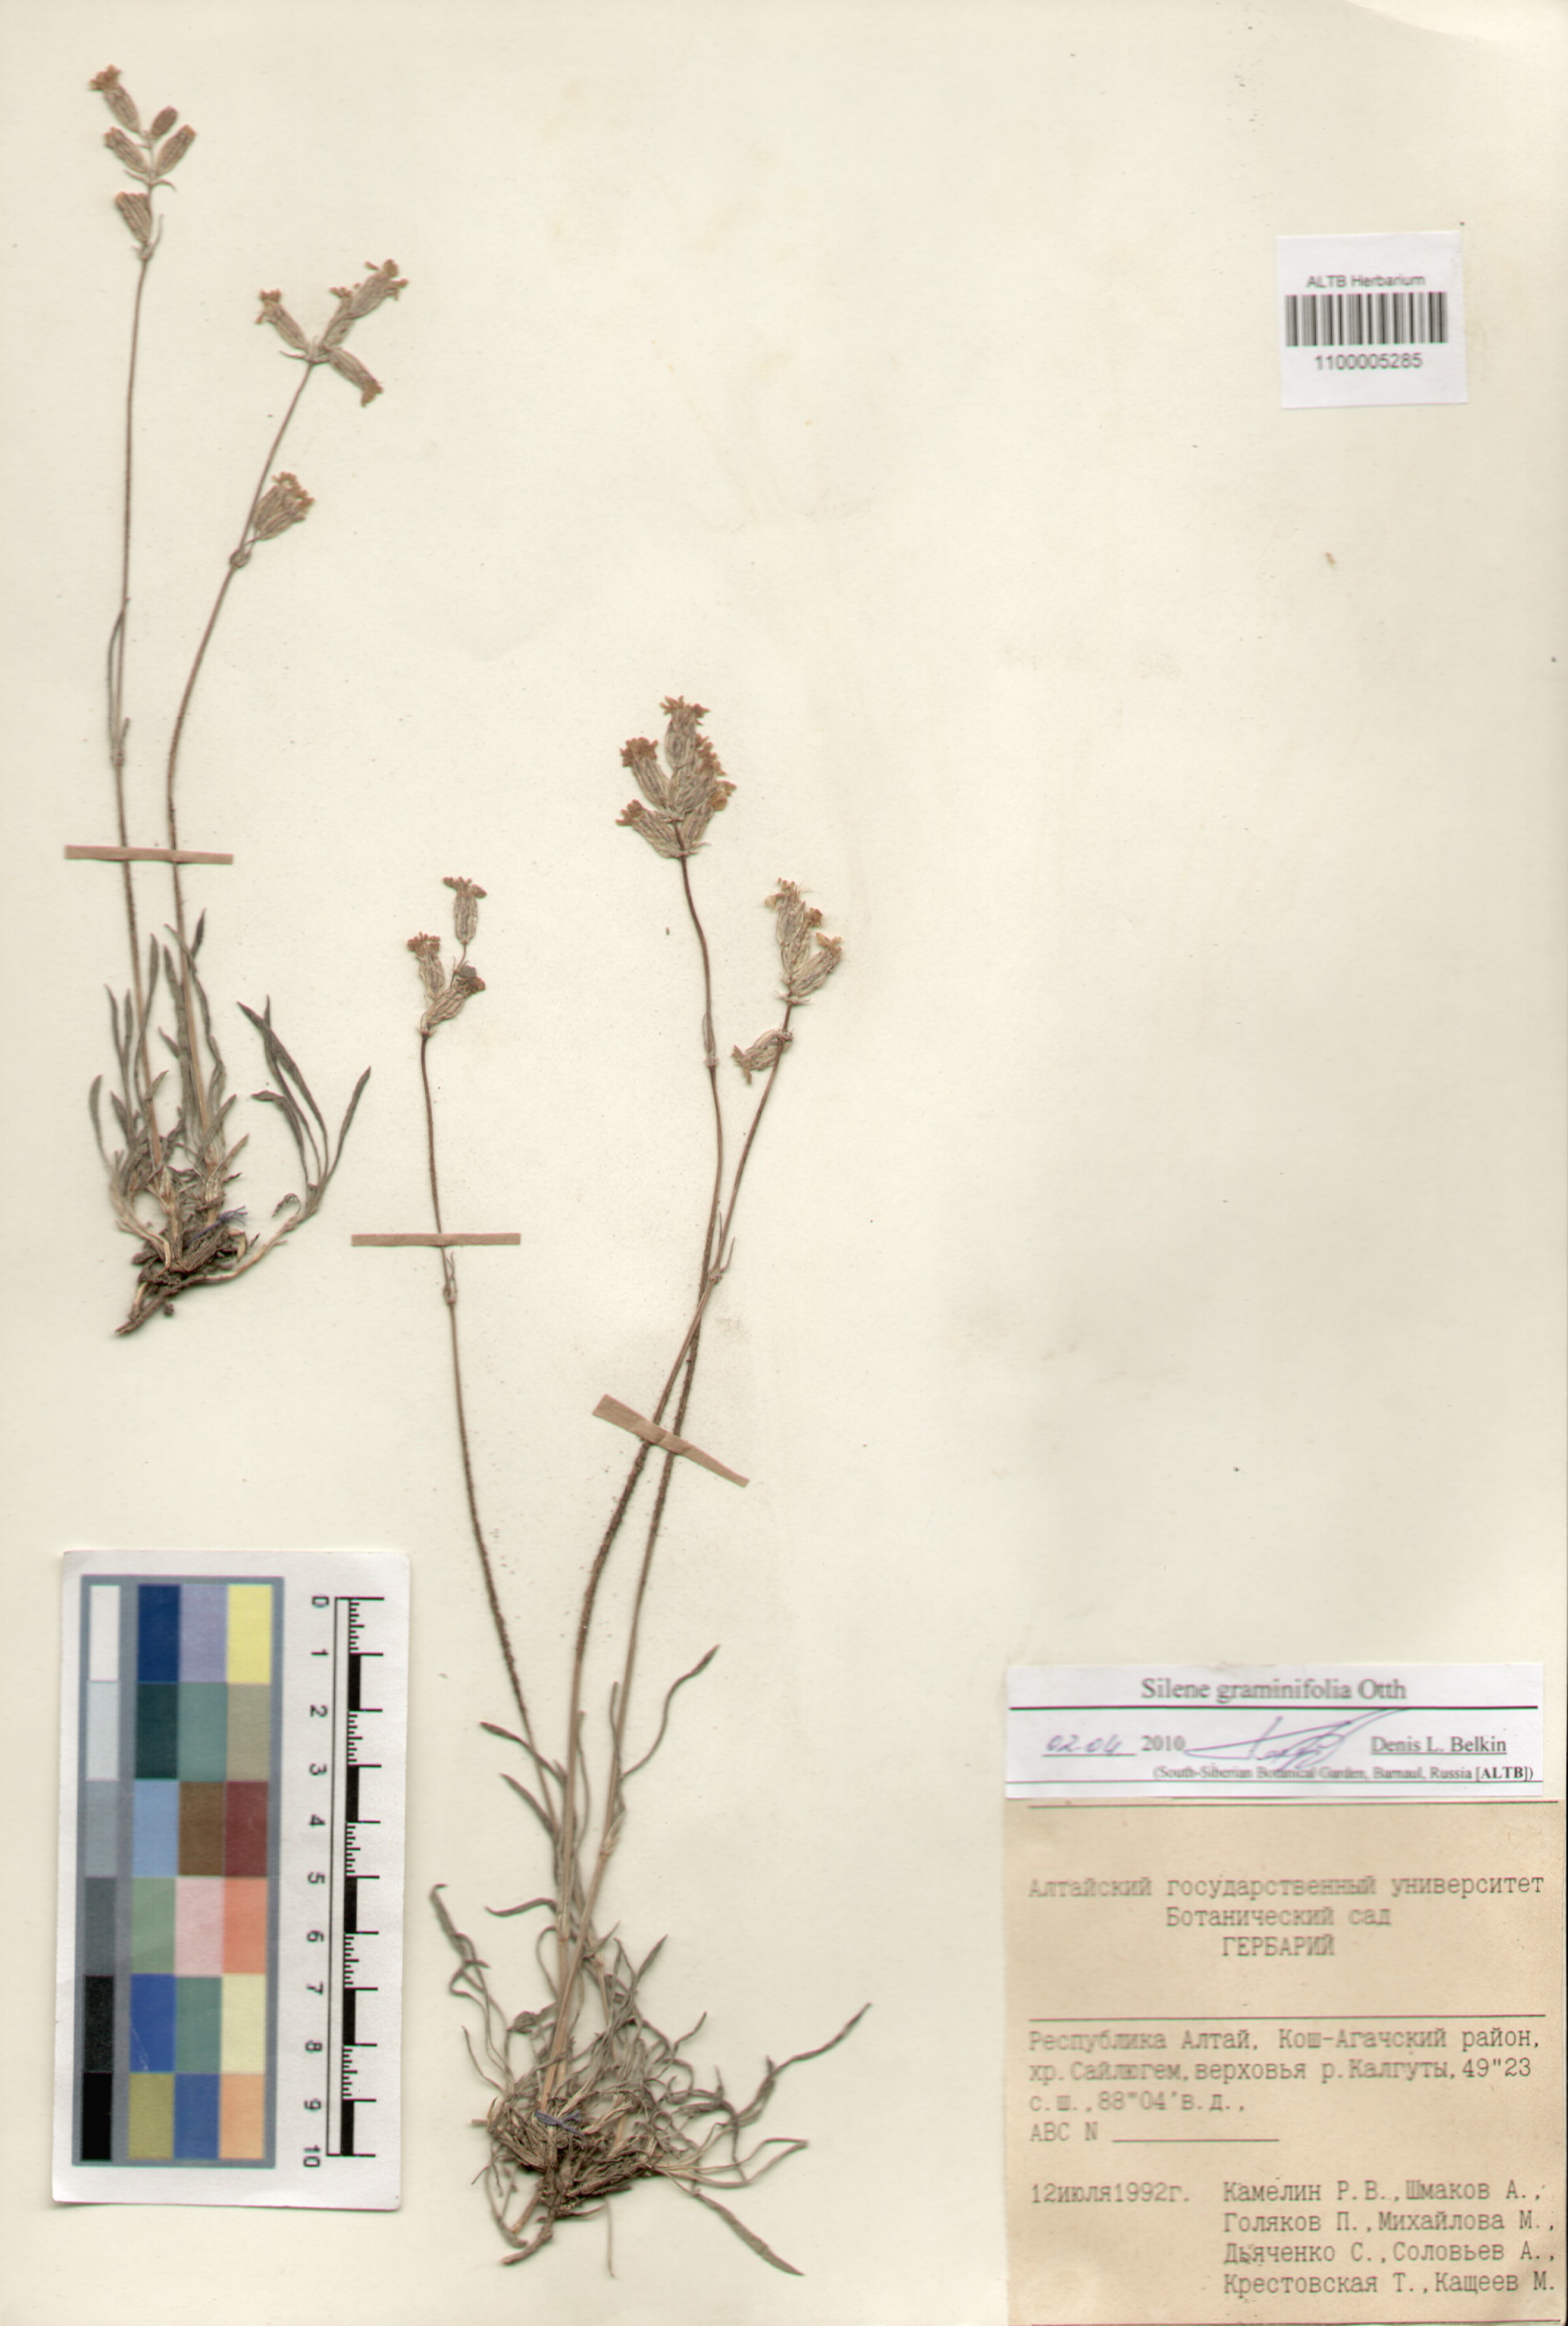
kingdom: Plantae
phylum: Tracheophyta
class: Magnoliopsida
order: Caryophyllales
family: Caryophyllaceae
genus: Silene
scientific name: Silene graminifolia
